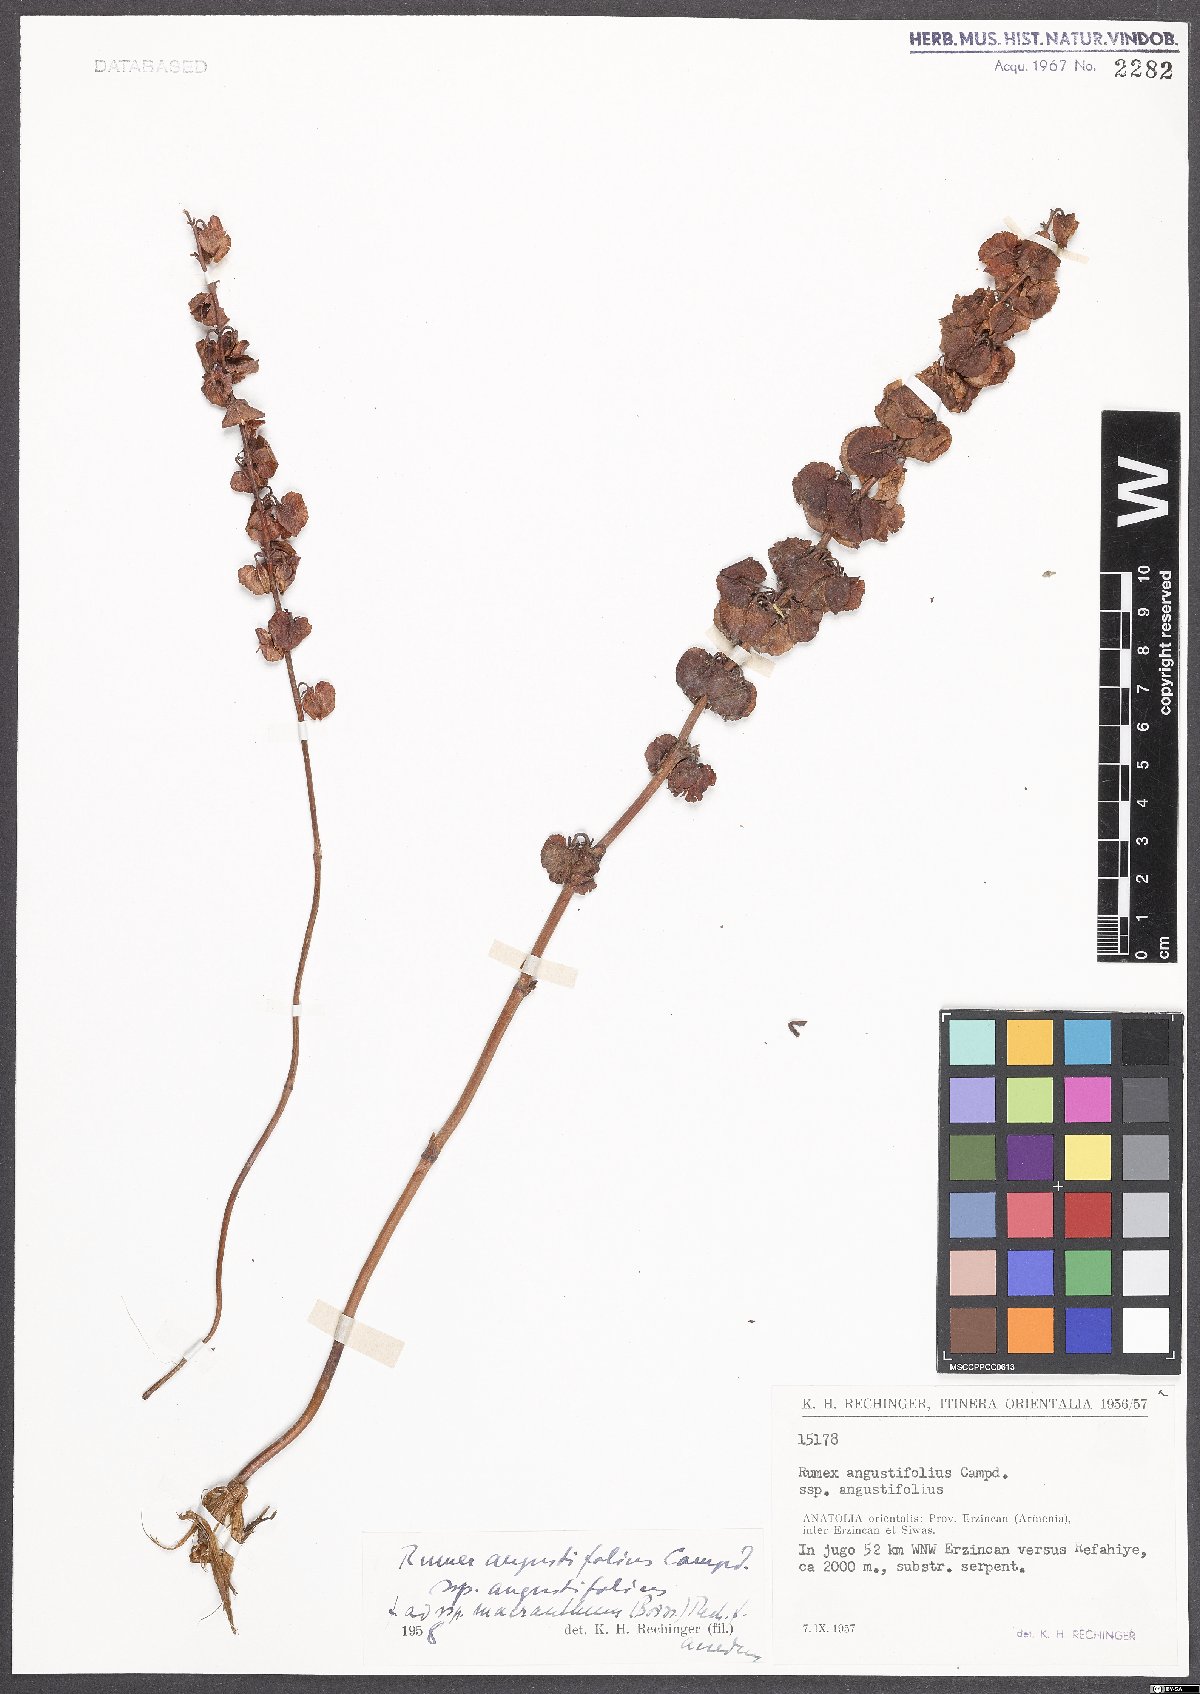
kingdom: Plantae
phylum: Tracheophyta
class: Magnoliopsida
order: Caryophyllales
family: Polygonaceae
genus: Rumex
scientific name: Rumex angustifolius
